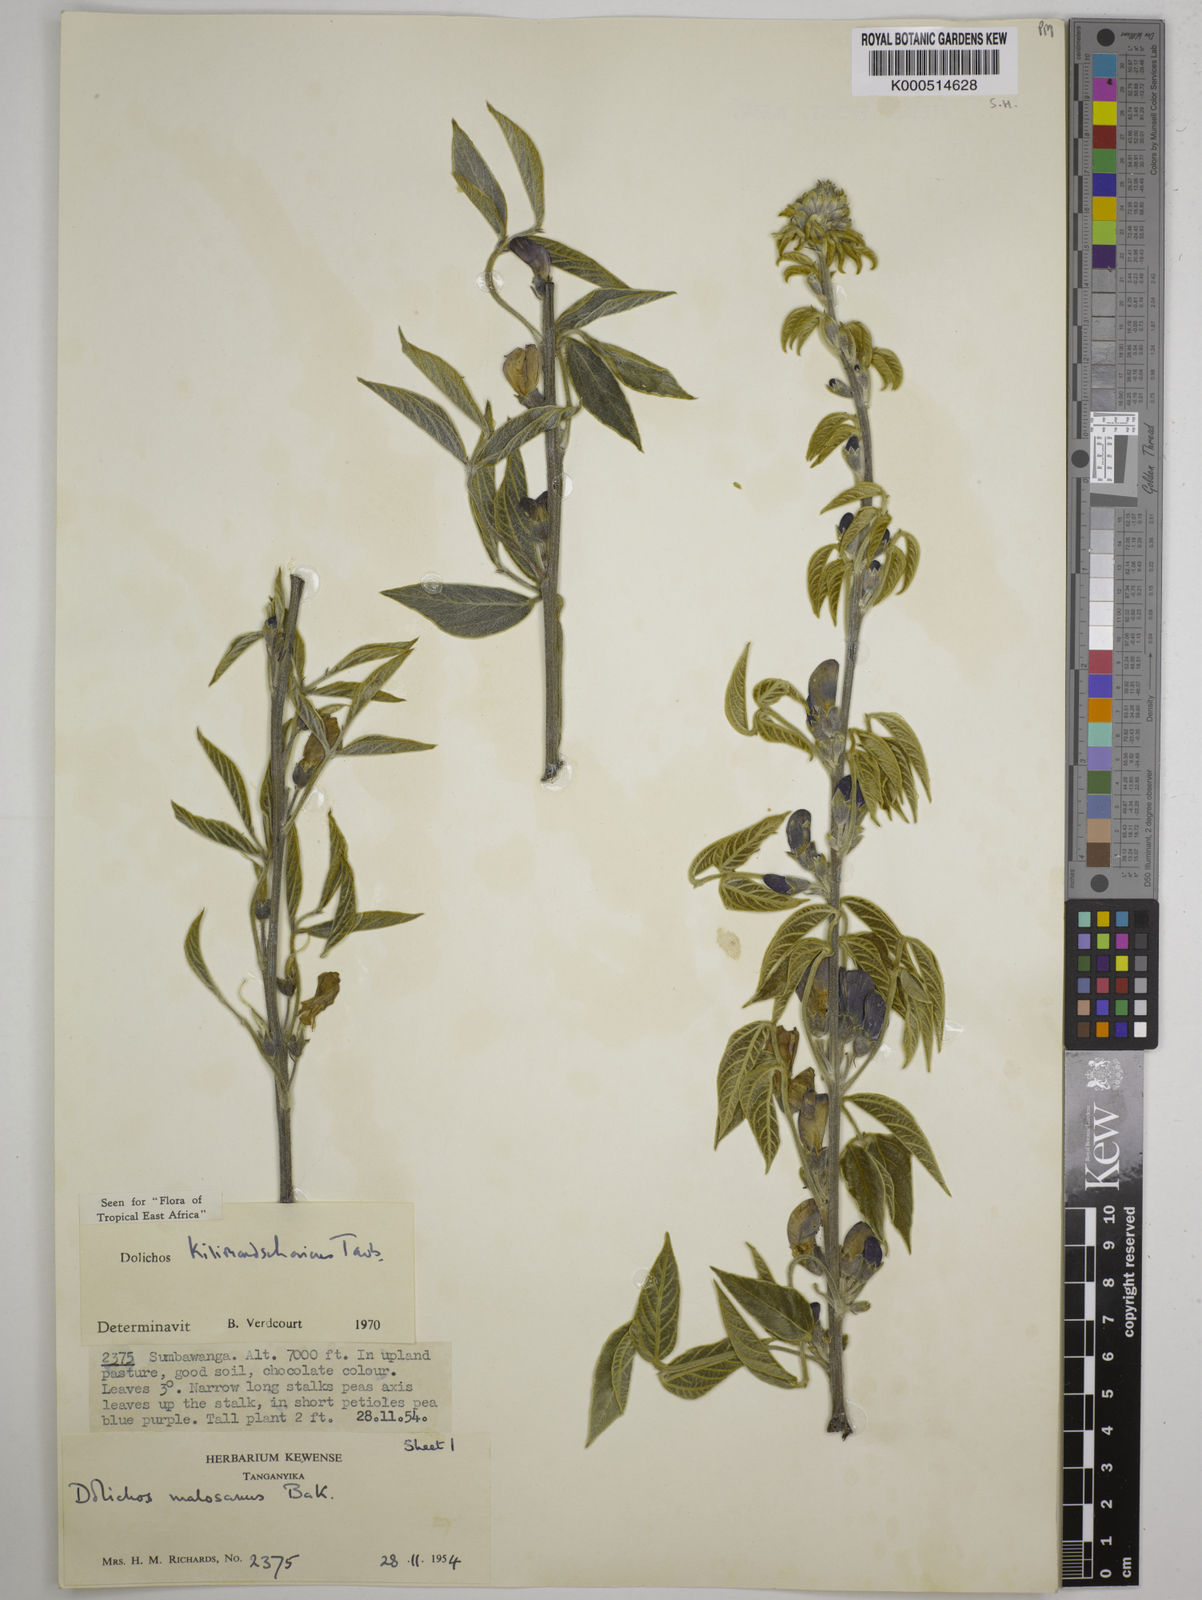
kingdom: Plantae
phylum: Tracheophyta
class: Magnoliopsida
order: Fabales
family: Fabaceae
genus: Dolichos
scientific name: Dolichos kilimandscharicus
